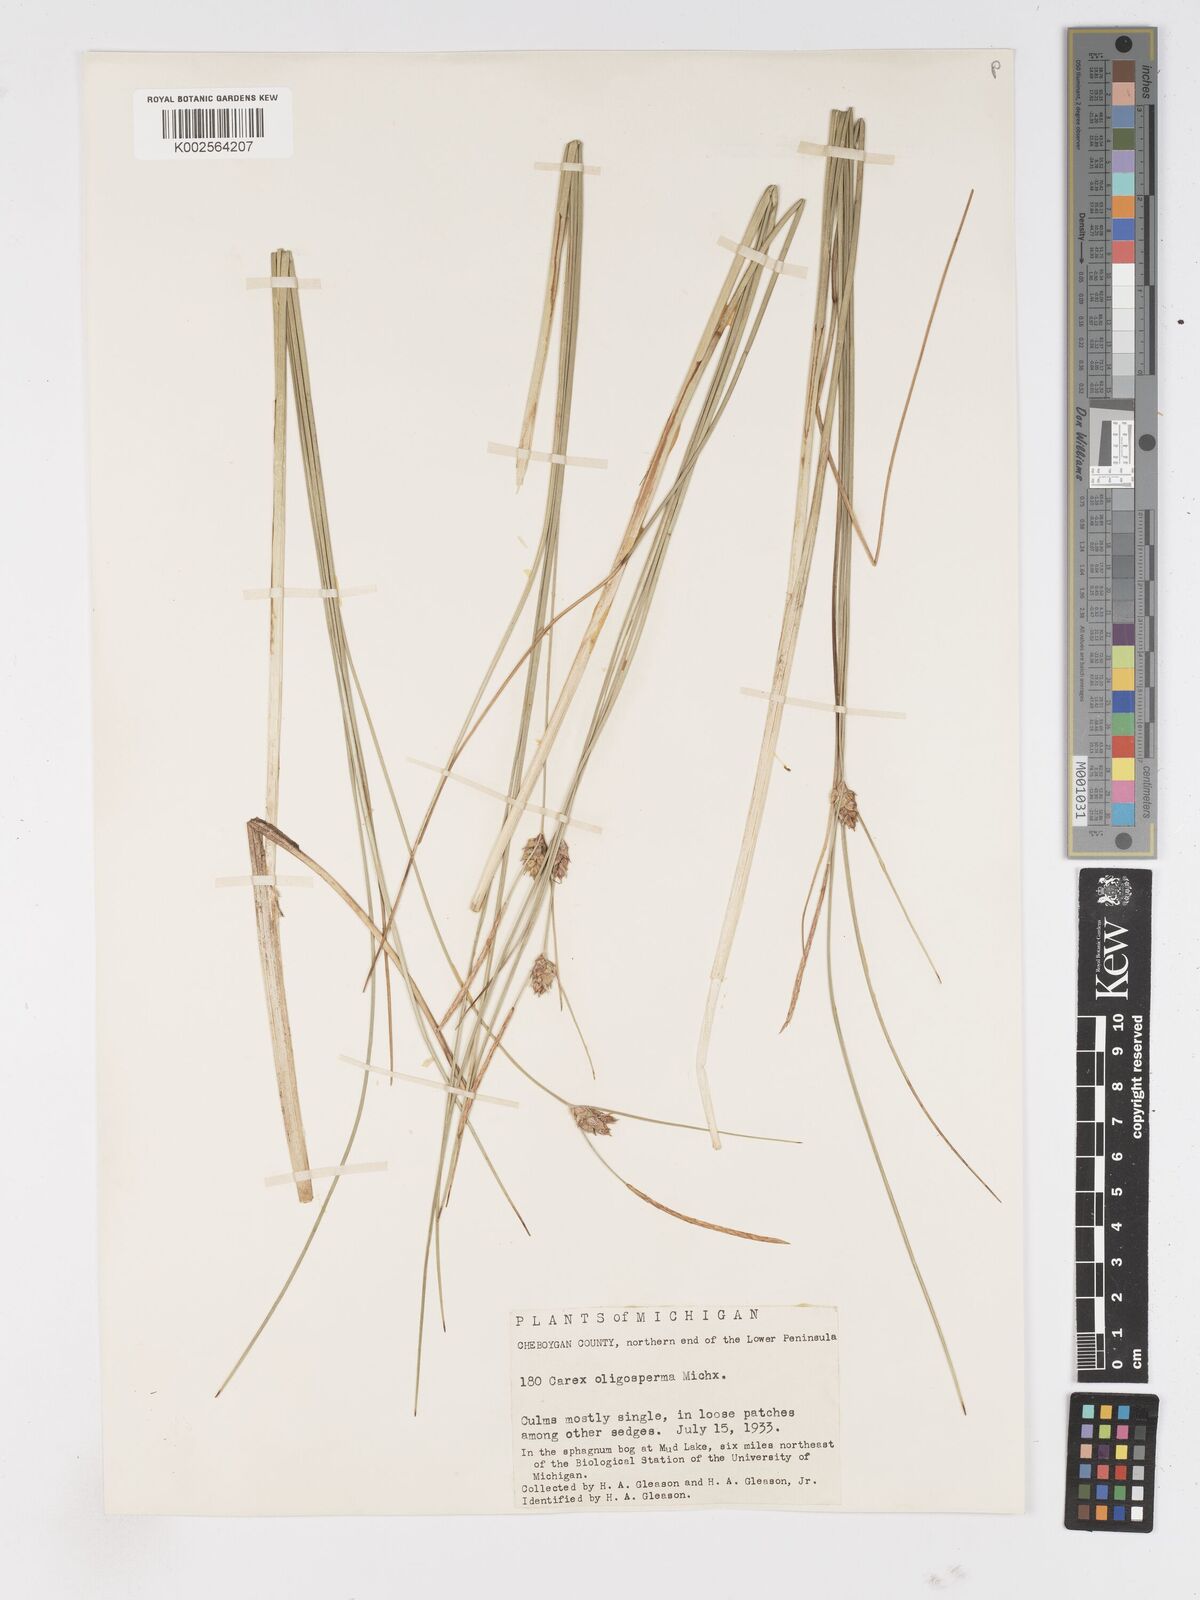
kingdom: Plantae
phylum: Tracheophyta
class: Liliopsida
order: Poales
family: Cyperaceae
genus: Carex
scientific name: Carex oligosperma
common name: Few-seed sedge
